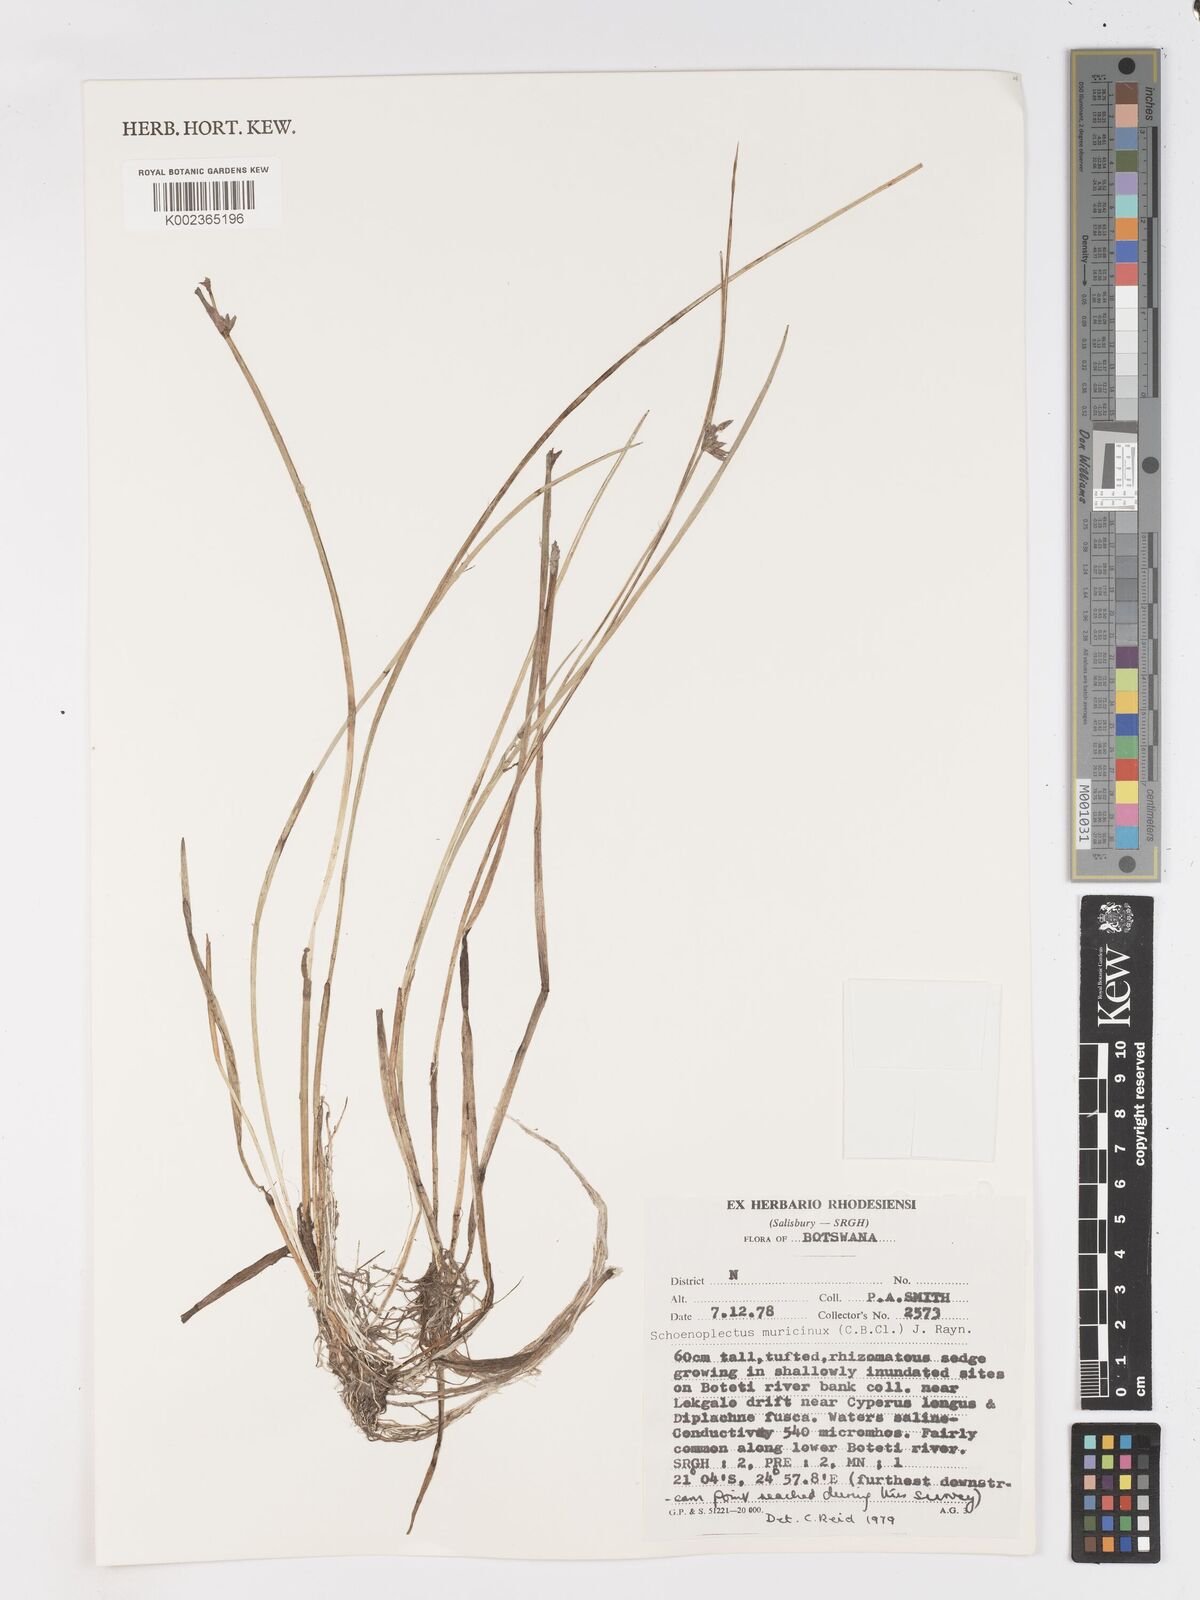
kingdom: Plantae
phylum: Tracheophyta
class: Liliopsida
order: Poales
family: Cyperaceae
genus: Schoenoplectiella
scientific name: Schoenoplectiella muricinux
